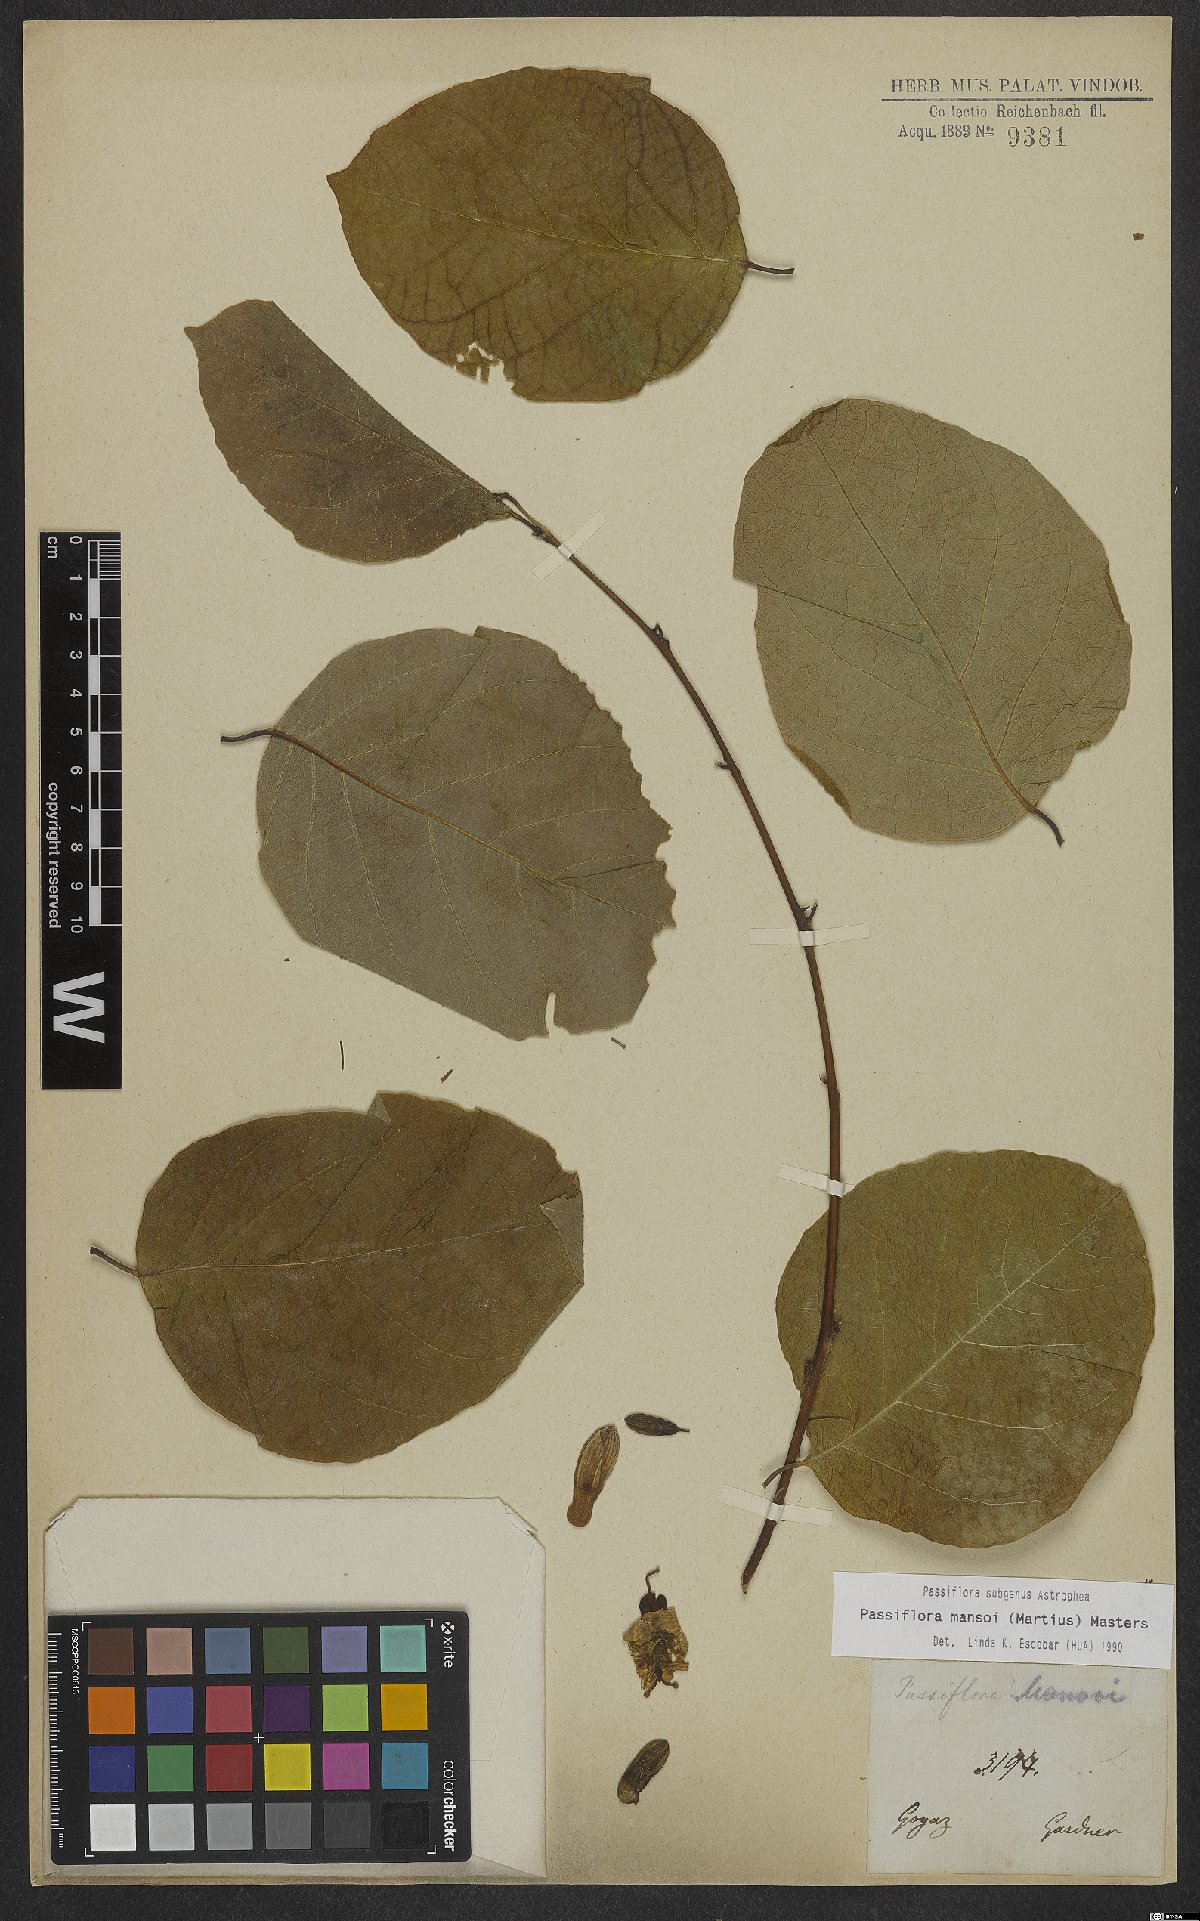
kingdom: Plantae
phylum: Tracheophyta
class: Magnoliopsida
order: Malpighiales
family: Passifloraceae
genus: Passiflora
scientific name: Passiflora mansoi
